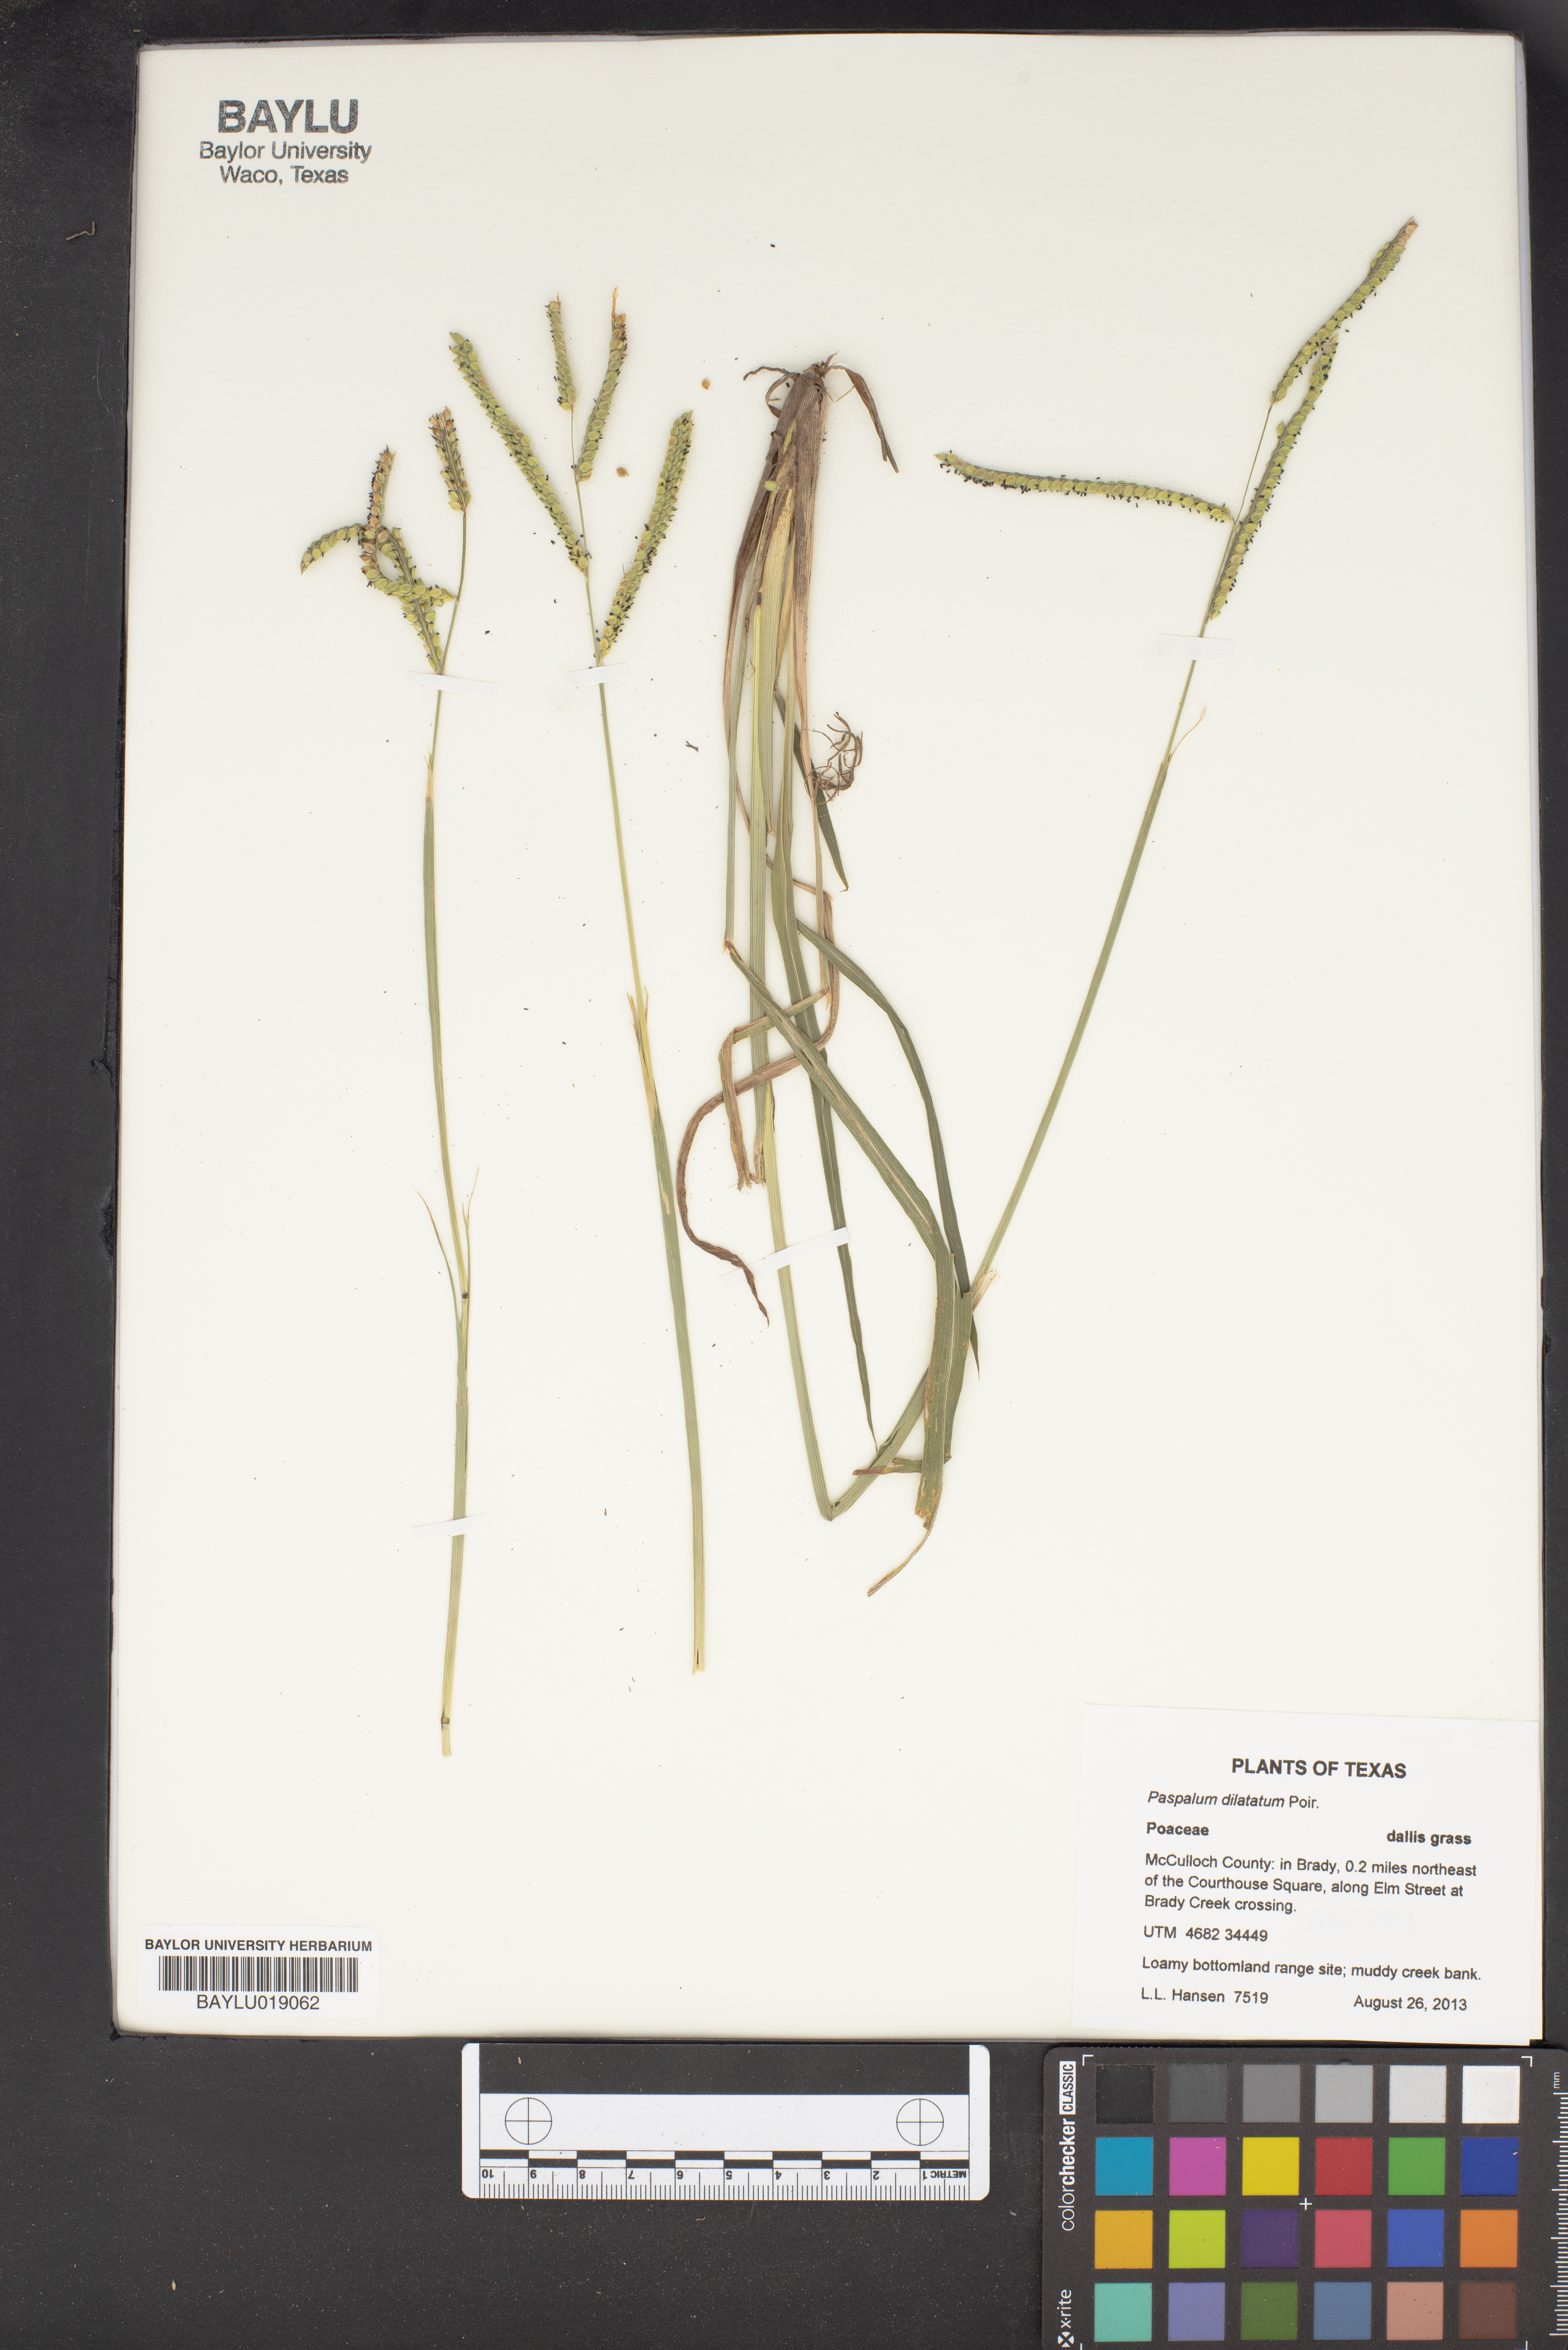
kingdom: Plantae
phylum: Tracheophyta
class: Liliopsida
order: Poales
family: Poaceae
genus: Paspalum
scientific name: Paspalum dilatatum
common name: Dallisgrass
